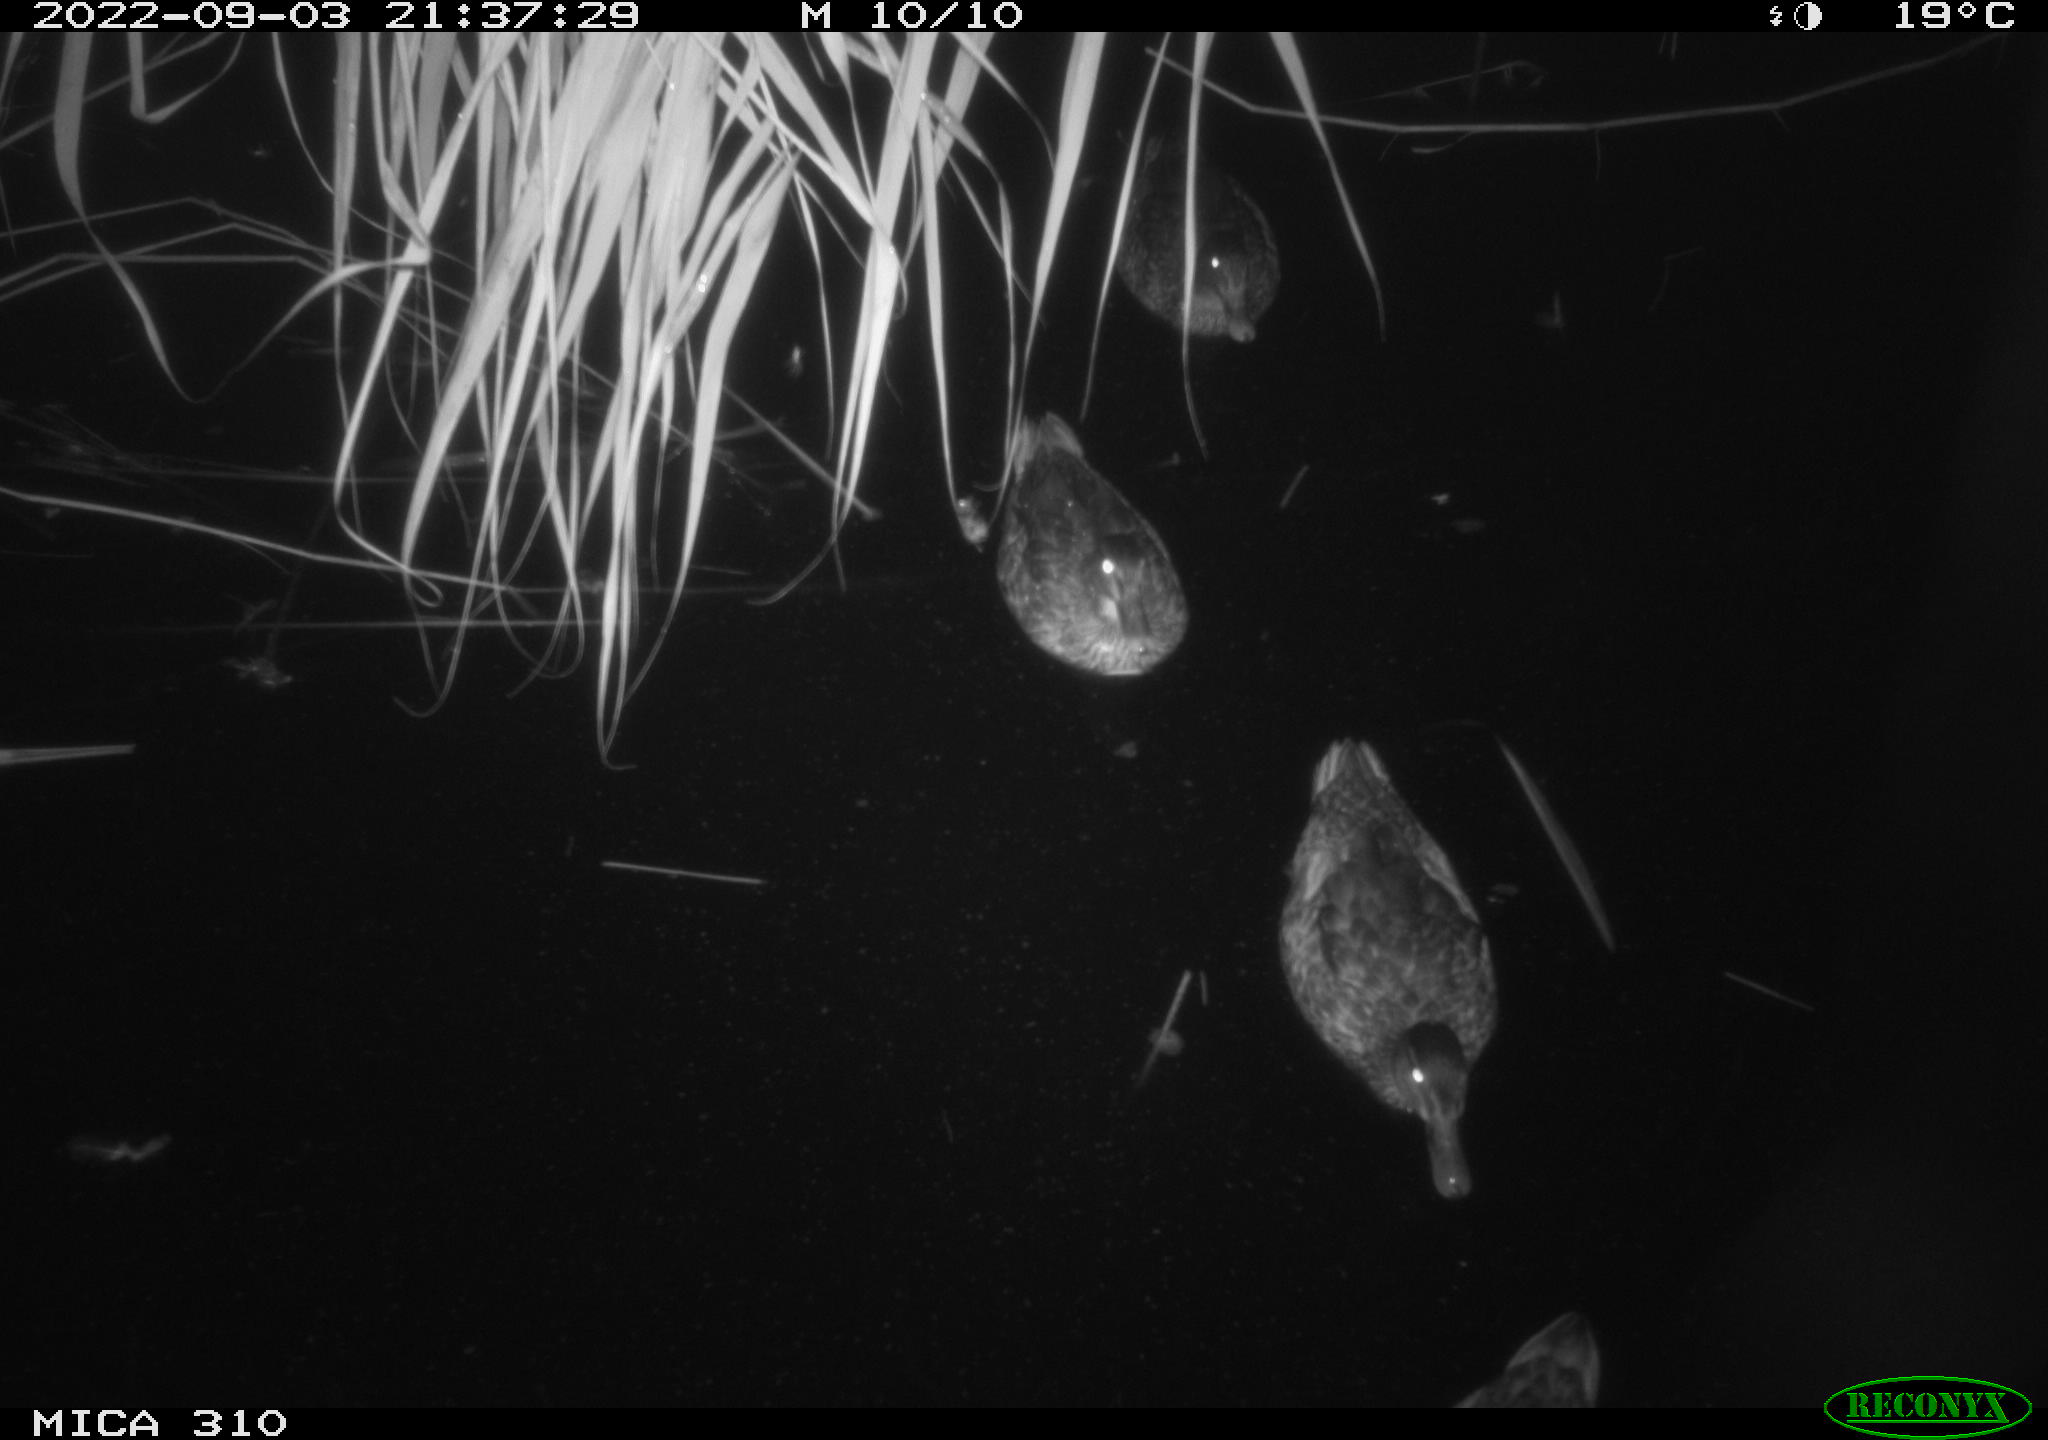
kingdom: Animalia
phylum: Chordata
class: Aves
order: Anseriformes
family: Anatidae
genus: Anas
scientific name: Anas platyrhynchos
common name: Mallard
